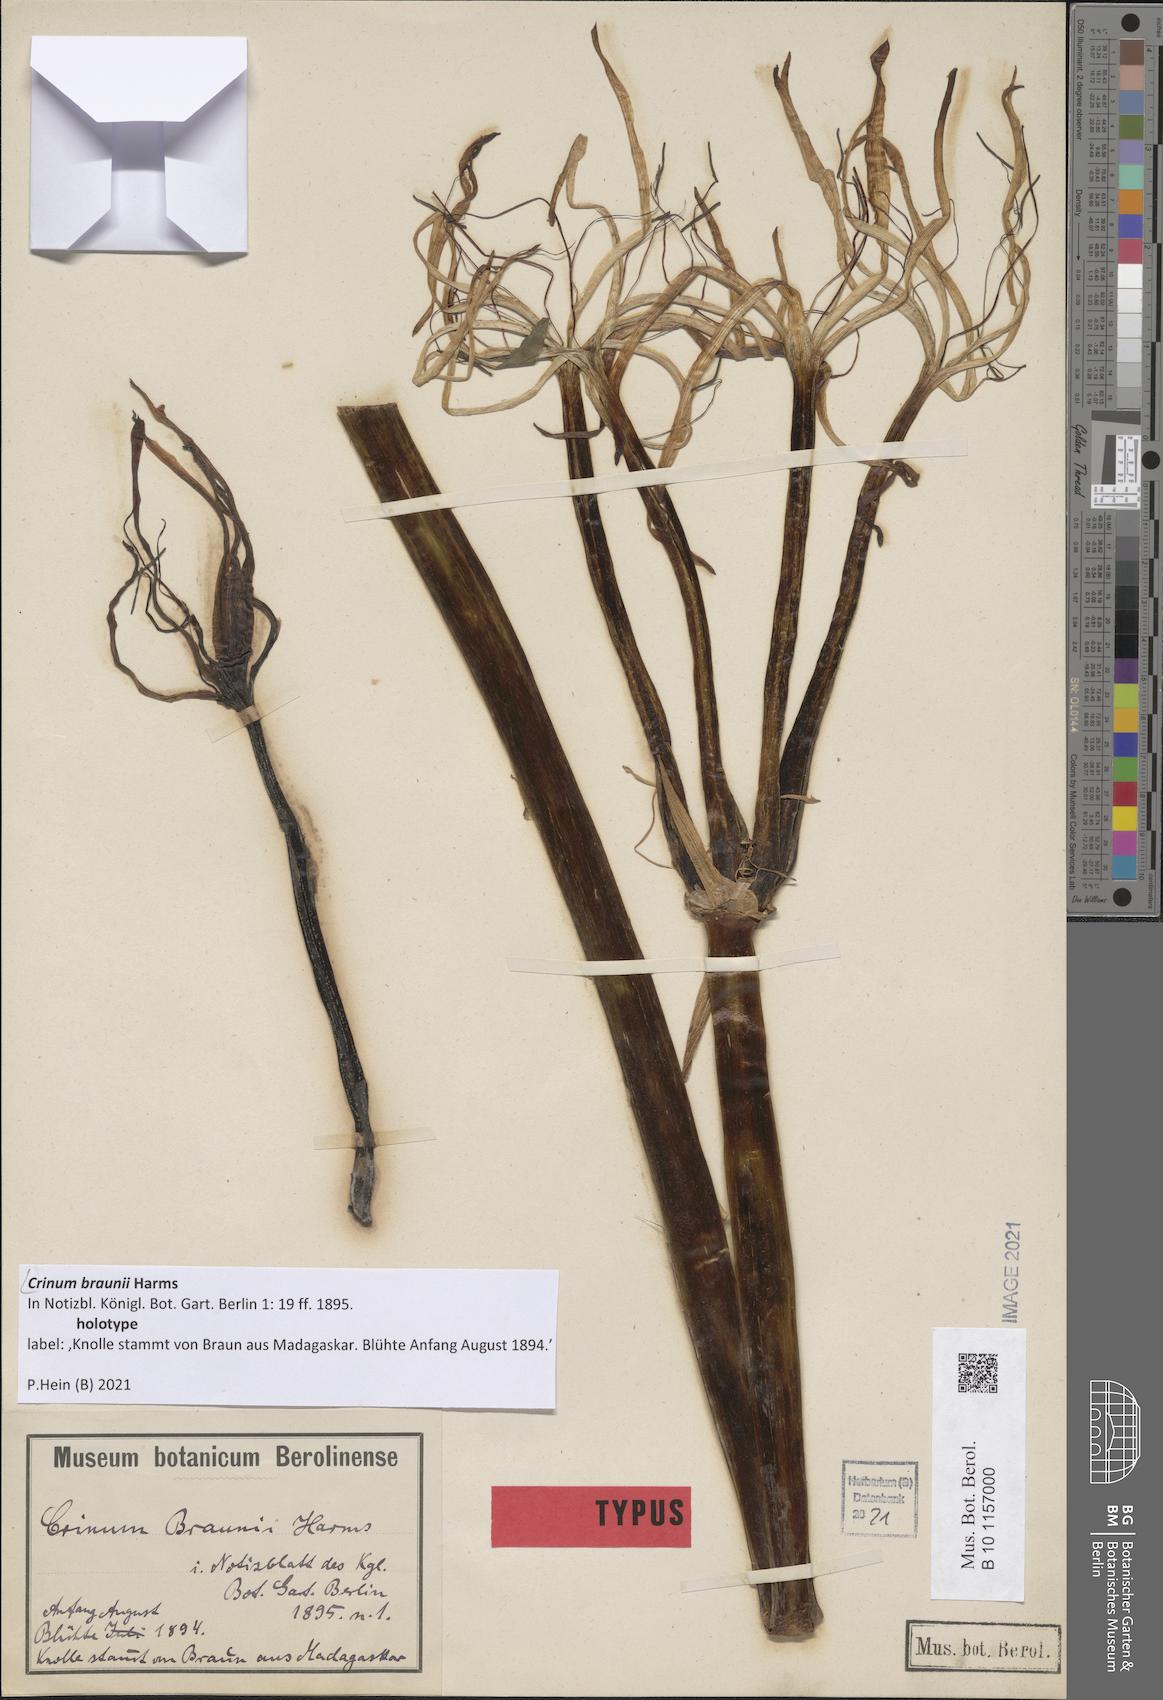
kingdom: Plantae
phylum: Tracheophyta
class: Liliopsida
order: Asparagales
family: Amaryllidaceae
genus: Crinum
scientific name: Crinum braunii
